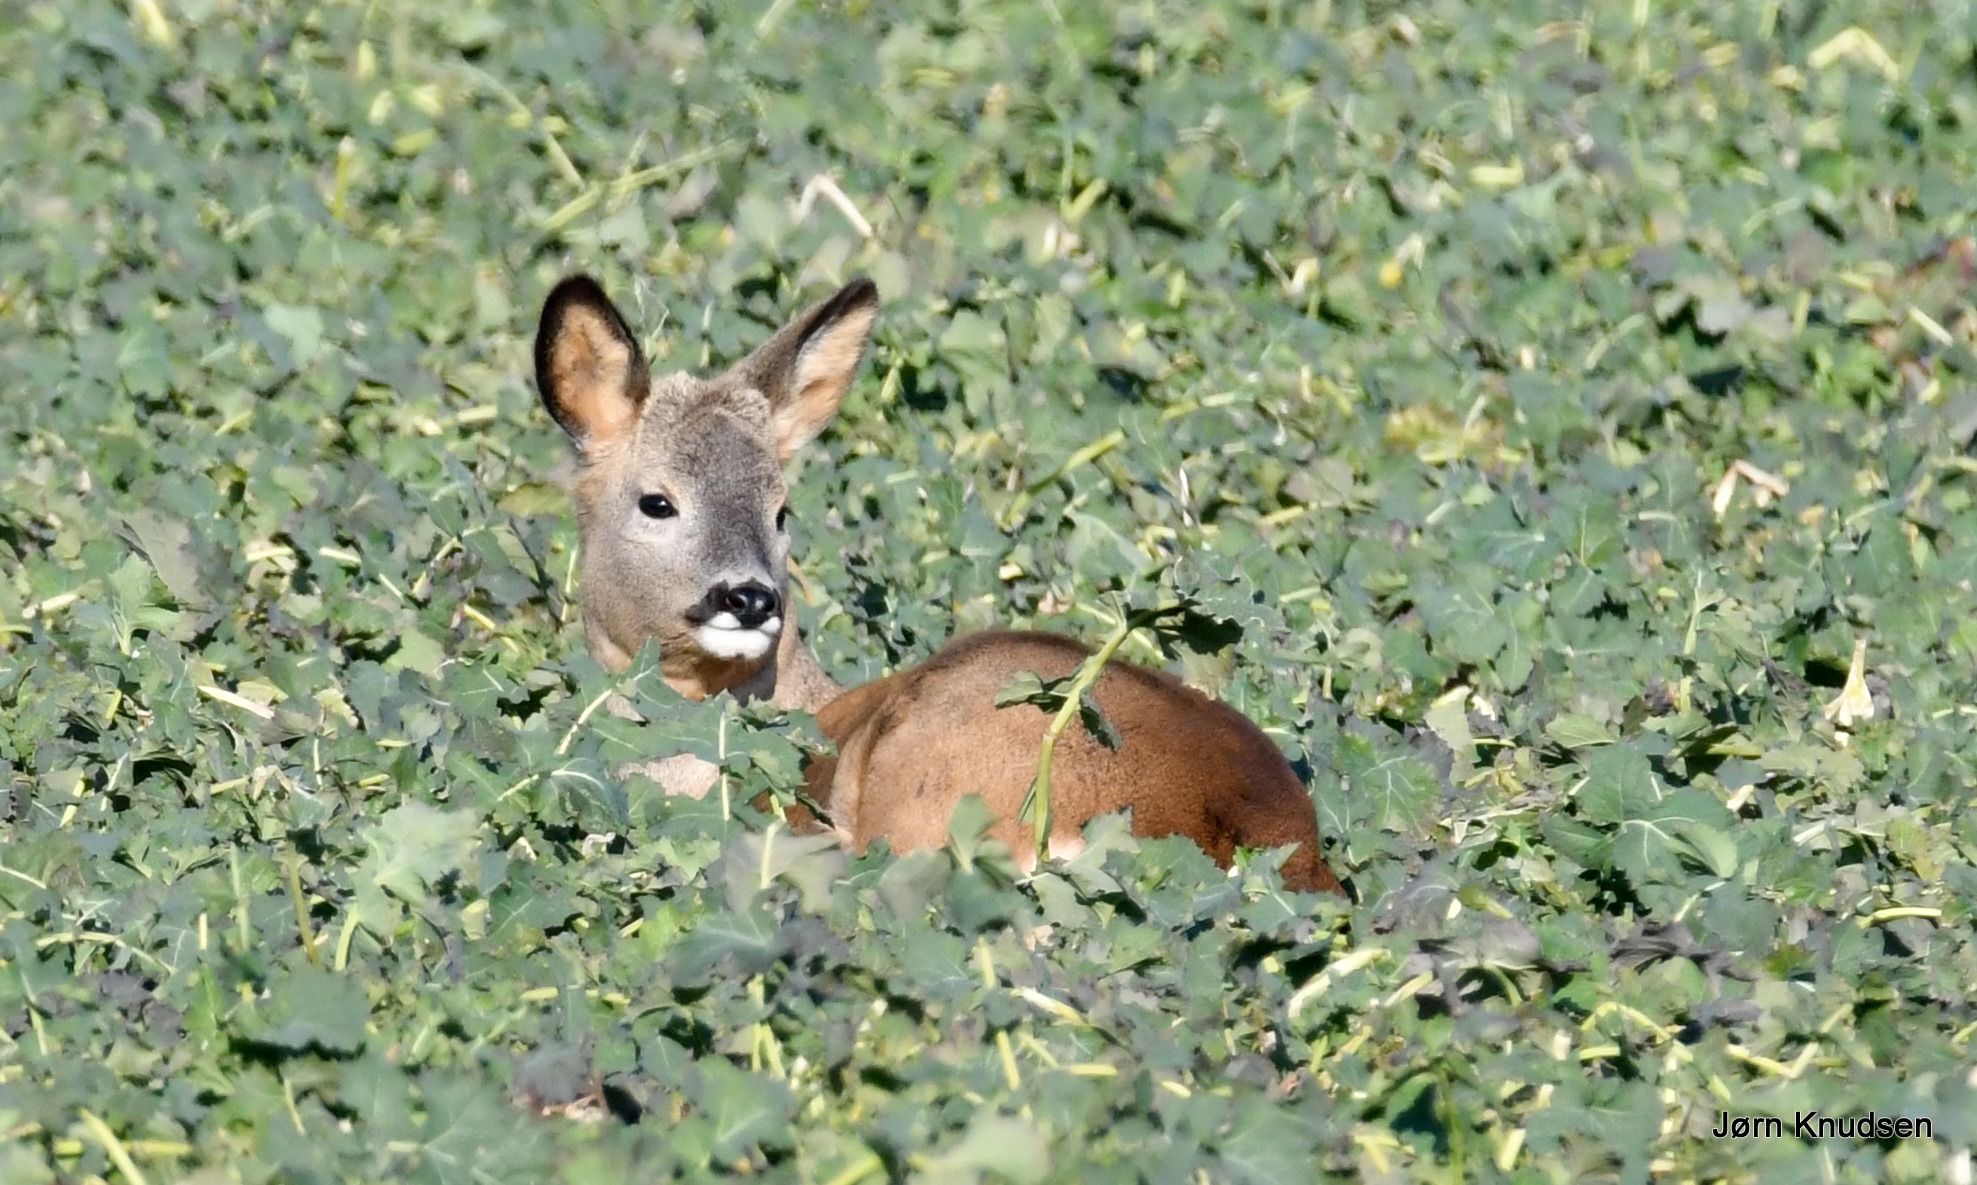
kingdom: Animalia
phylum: Chordata
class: Mammalia
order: Artiodactyla
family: Cervidae
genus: Capreolus
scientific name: Capreolus capreolus
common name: Rådyr
